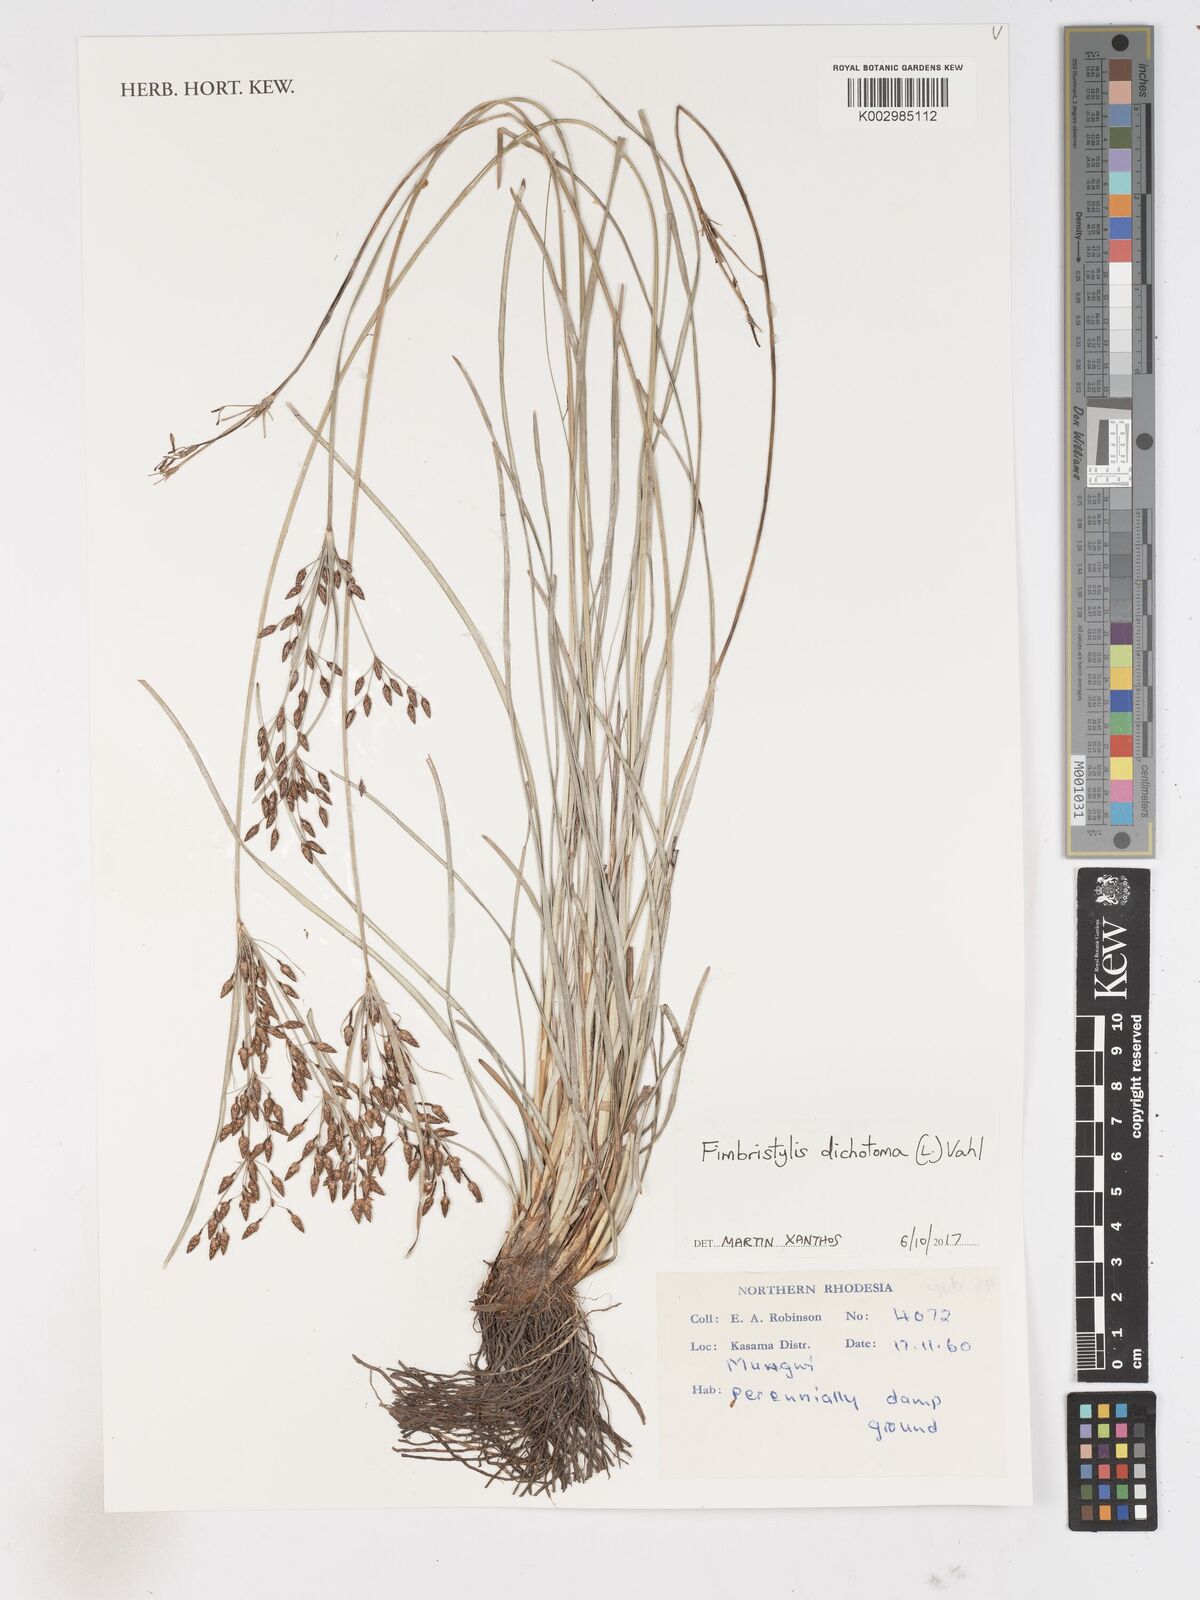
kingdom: Plantae
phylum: Tracheophyta
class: Liliopsida
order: Poales
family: Cyperaceae
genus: Fimbristylis
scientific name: Fimbristylis dichotoma
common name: Forked fimbry
